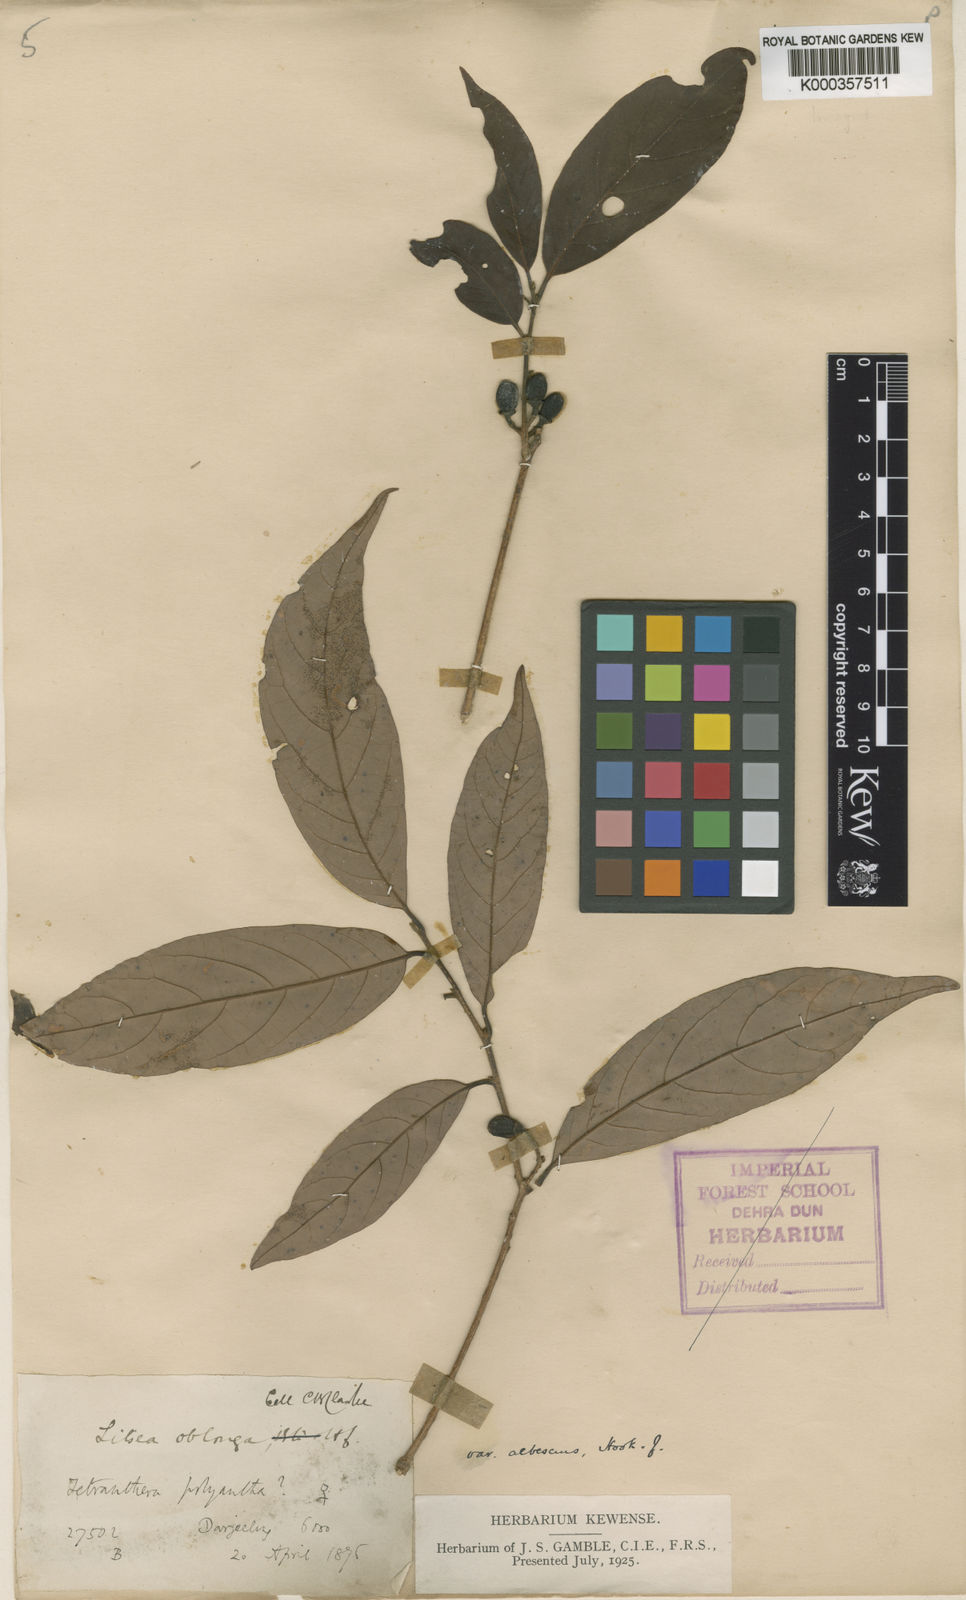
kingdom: Plantae
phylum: Tracheophyta
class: Magnoliopsida
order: Laurales
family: Lauraceae
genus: Litsea
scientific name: Litsea albescens
